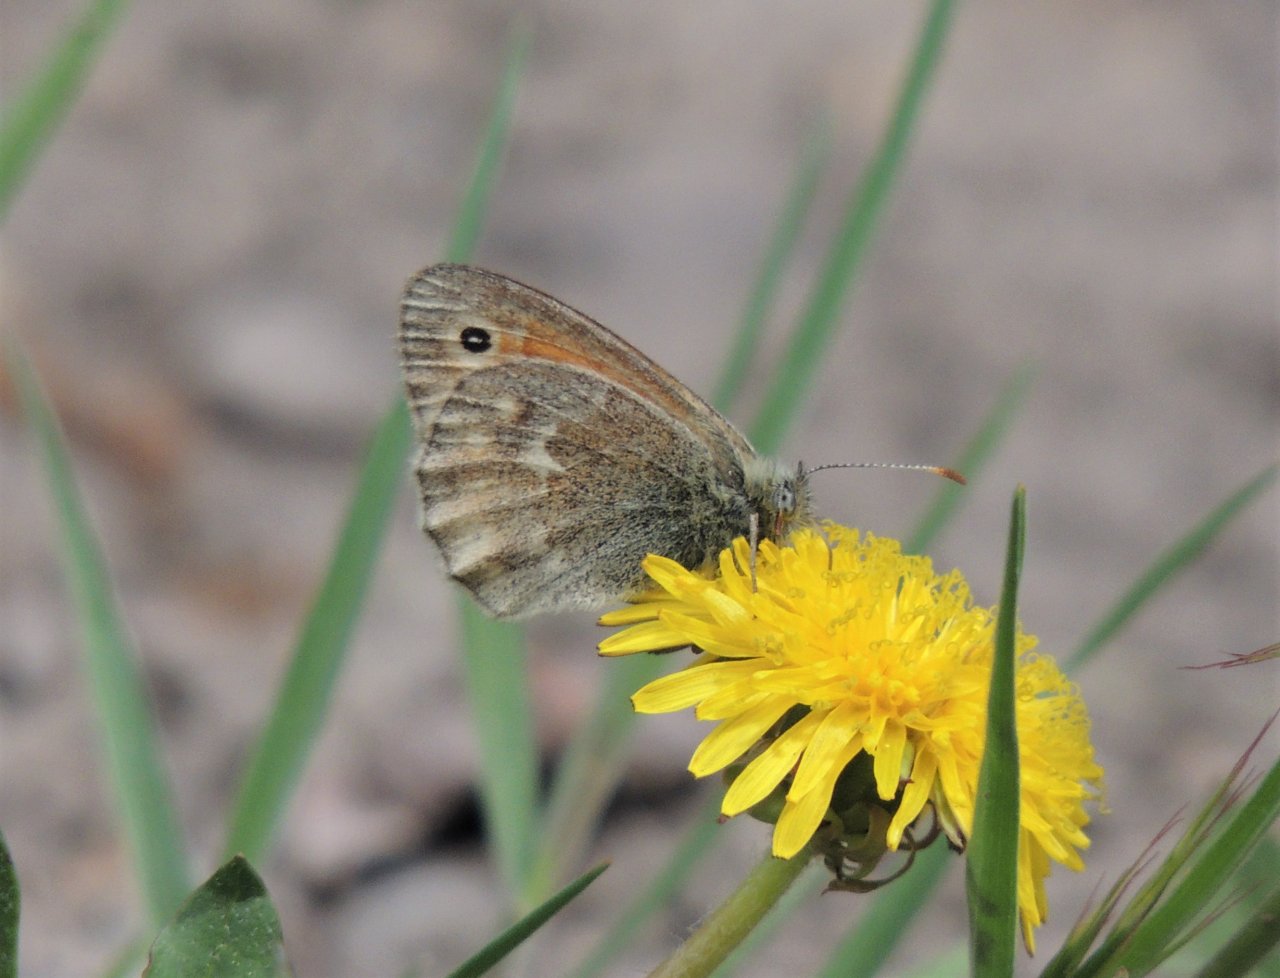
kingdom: Animalia
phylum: Arthropoda
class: Insecta
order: Lepidoptera
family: Nymphalidae
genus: Coenonympha
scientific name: Coenonympha tullia
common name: Large Heath
